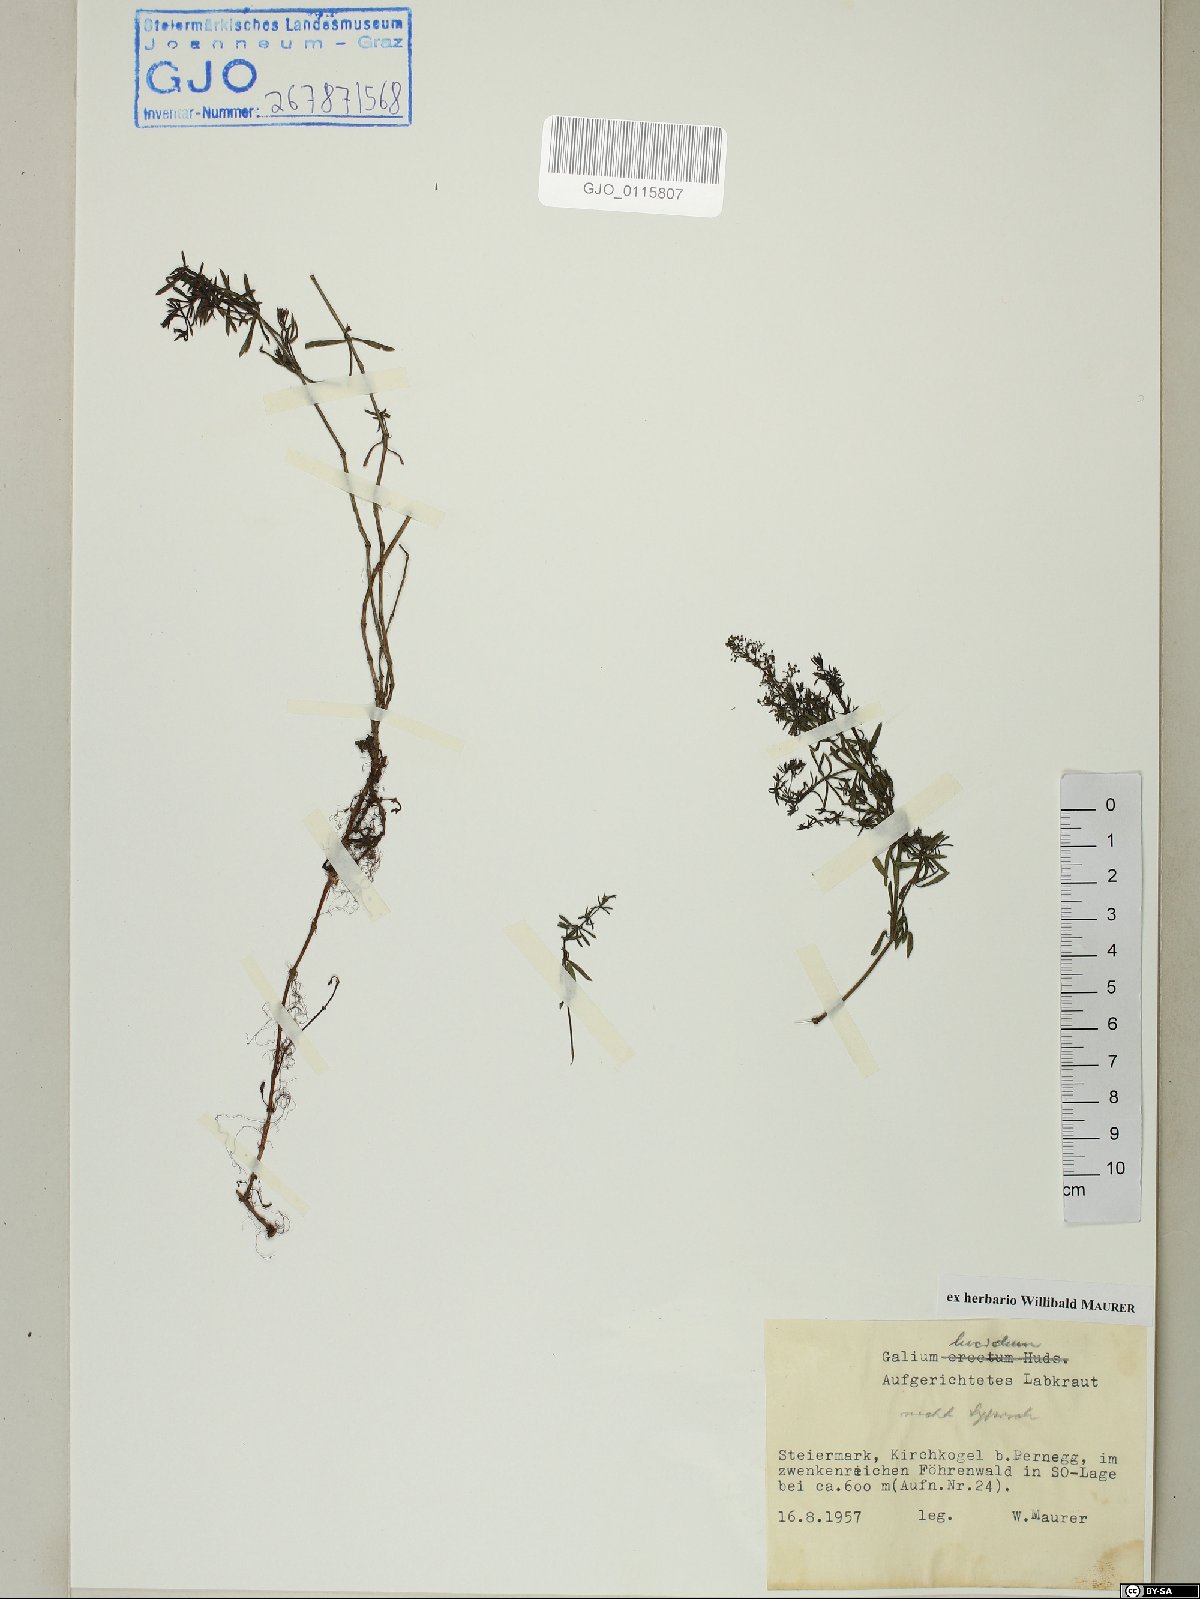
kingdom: Plantae
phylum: Tracheophyta
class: Magnoliopsida
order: Gentianales
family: Rubiaceae
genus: Galium
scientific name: Galium lucidum
